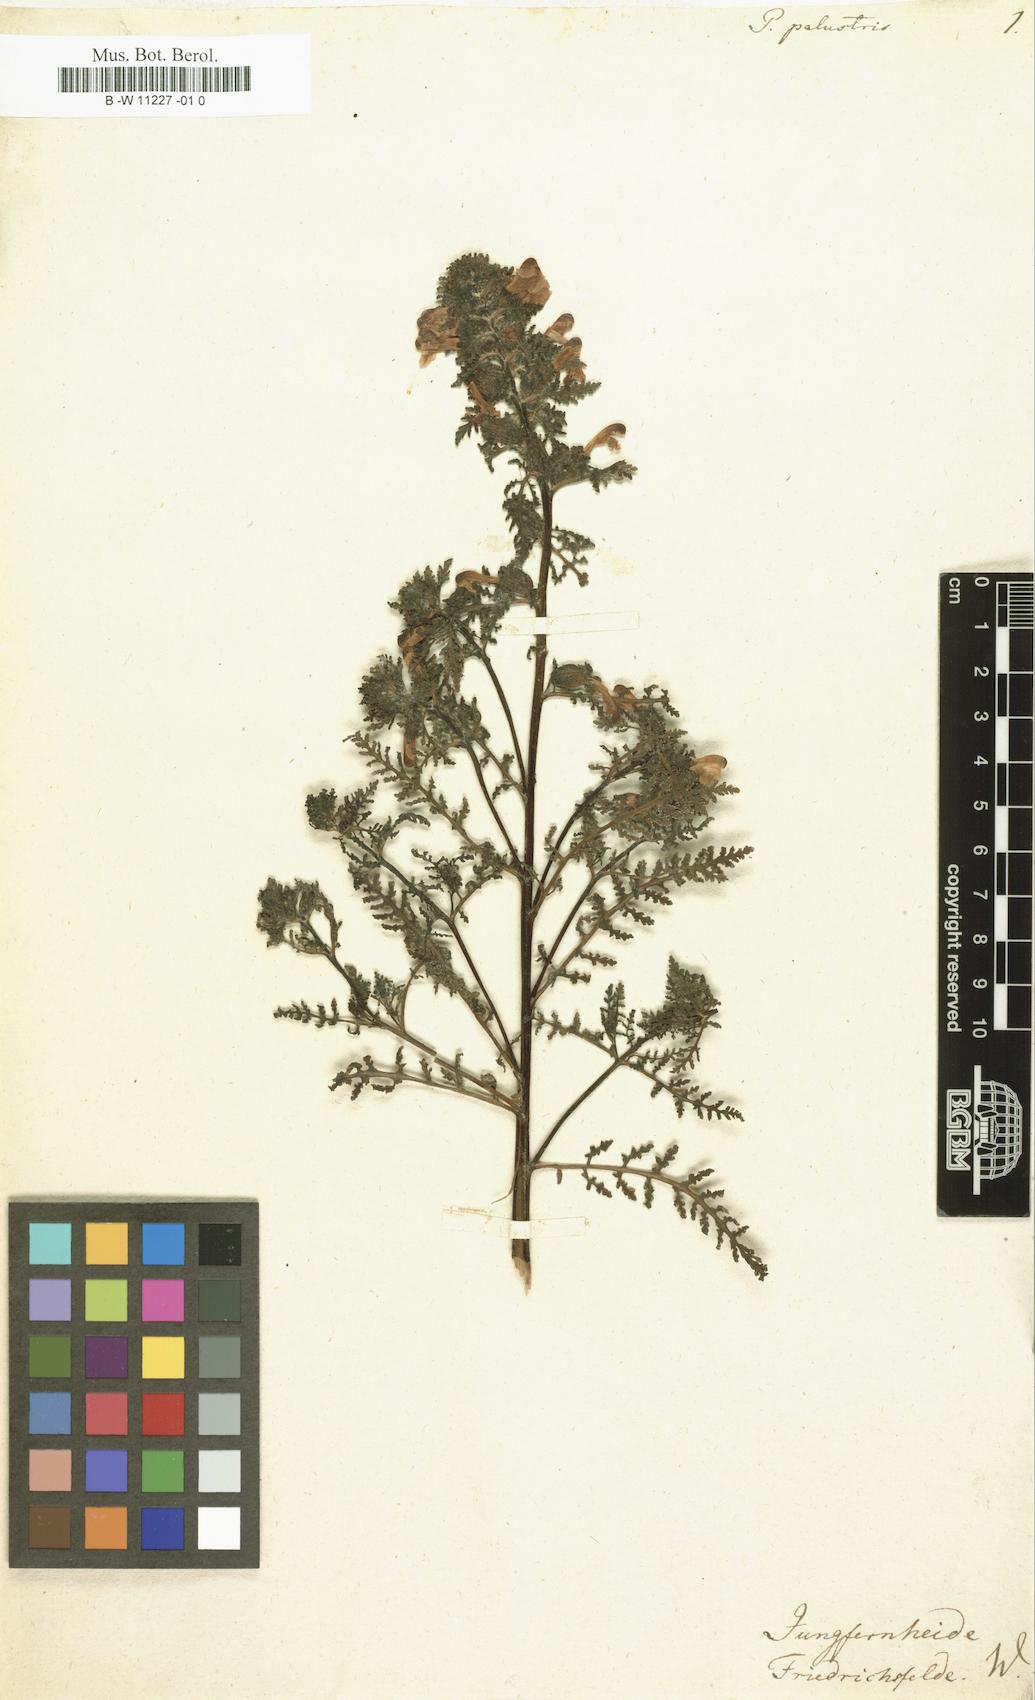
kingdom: Plantae
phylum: Tracheophyta
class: Magnoliopsida
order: Lamiales
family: Orobanchaceae
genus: Pedicularis
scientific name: Pedicularis palustris
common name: Marsh lousewort
